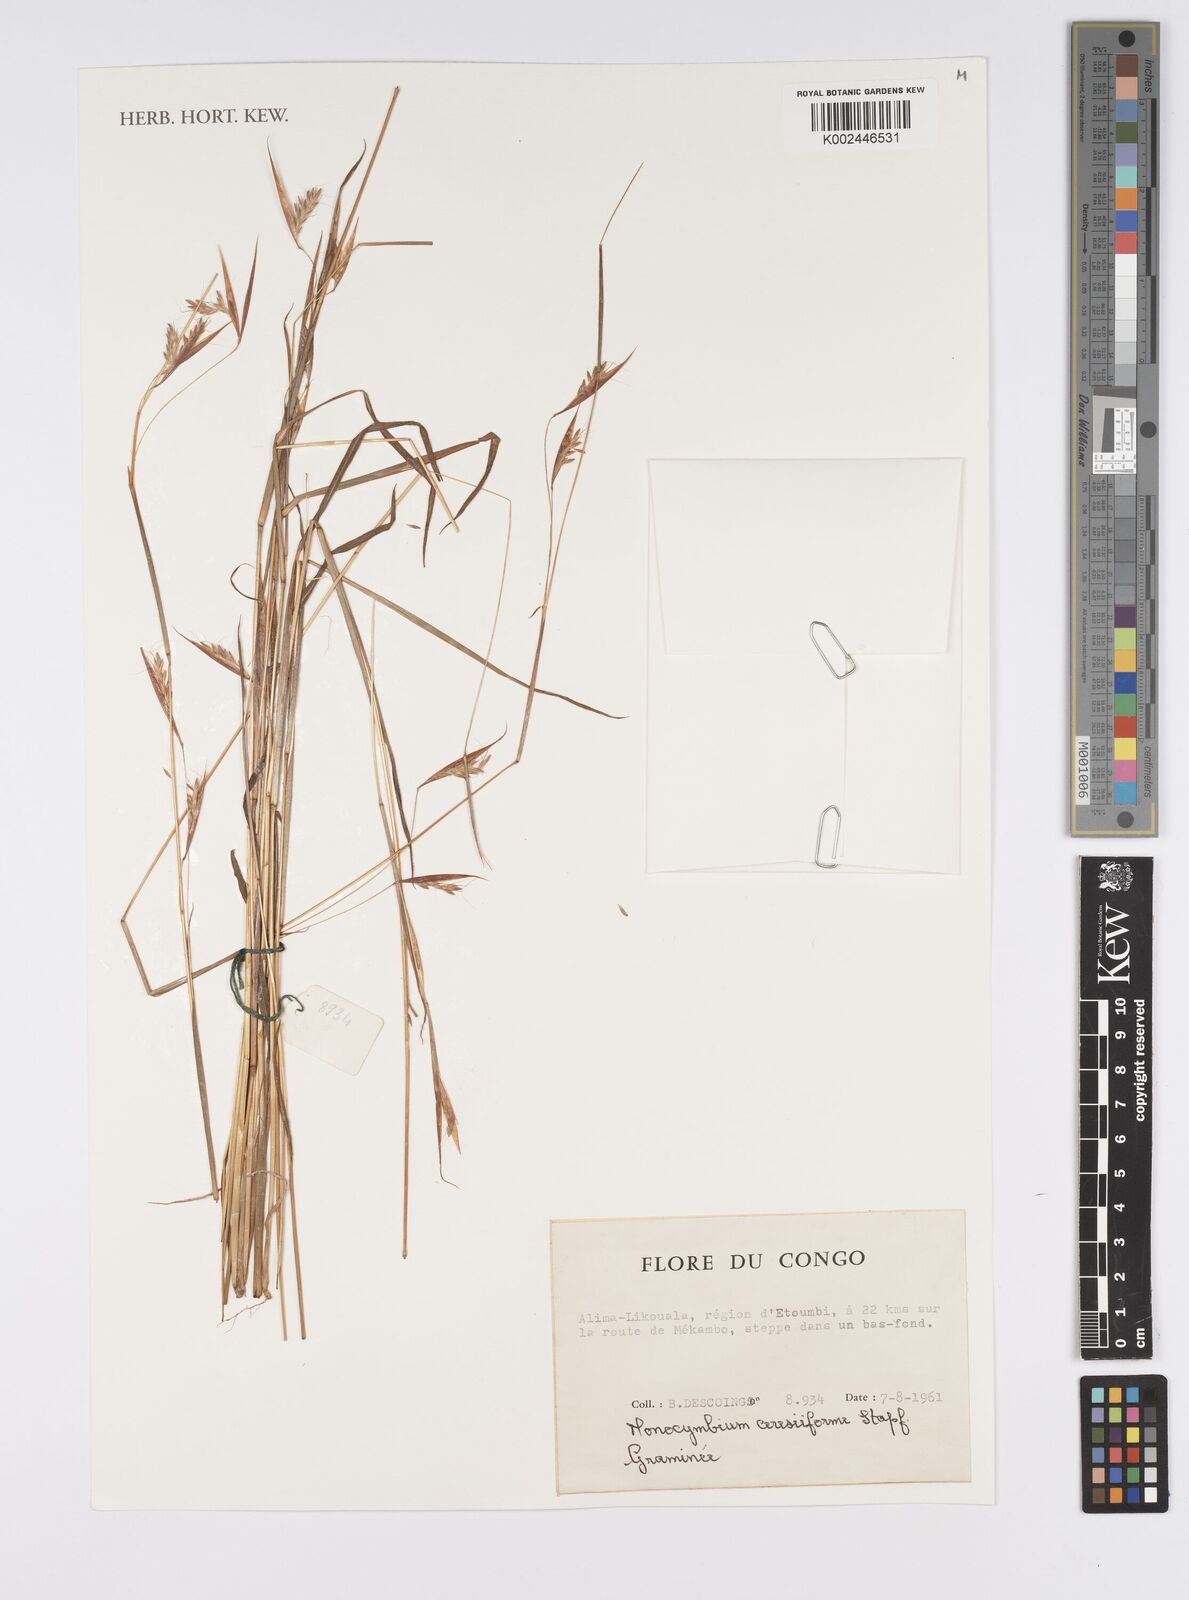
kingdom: Plantae
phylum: Tracheophyta
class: Liliopsida
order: Poales
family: Poaceae
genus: Monocymbium
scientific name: Monocymbium ceresiiforme
